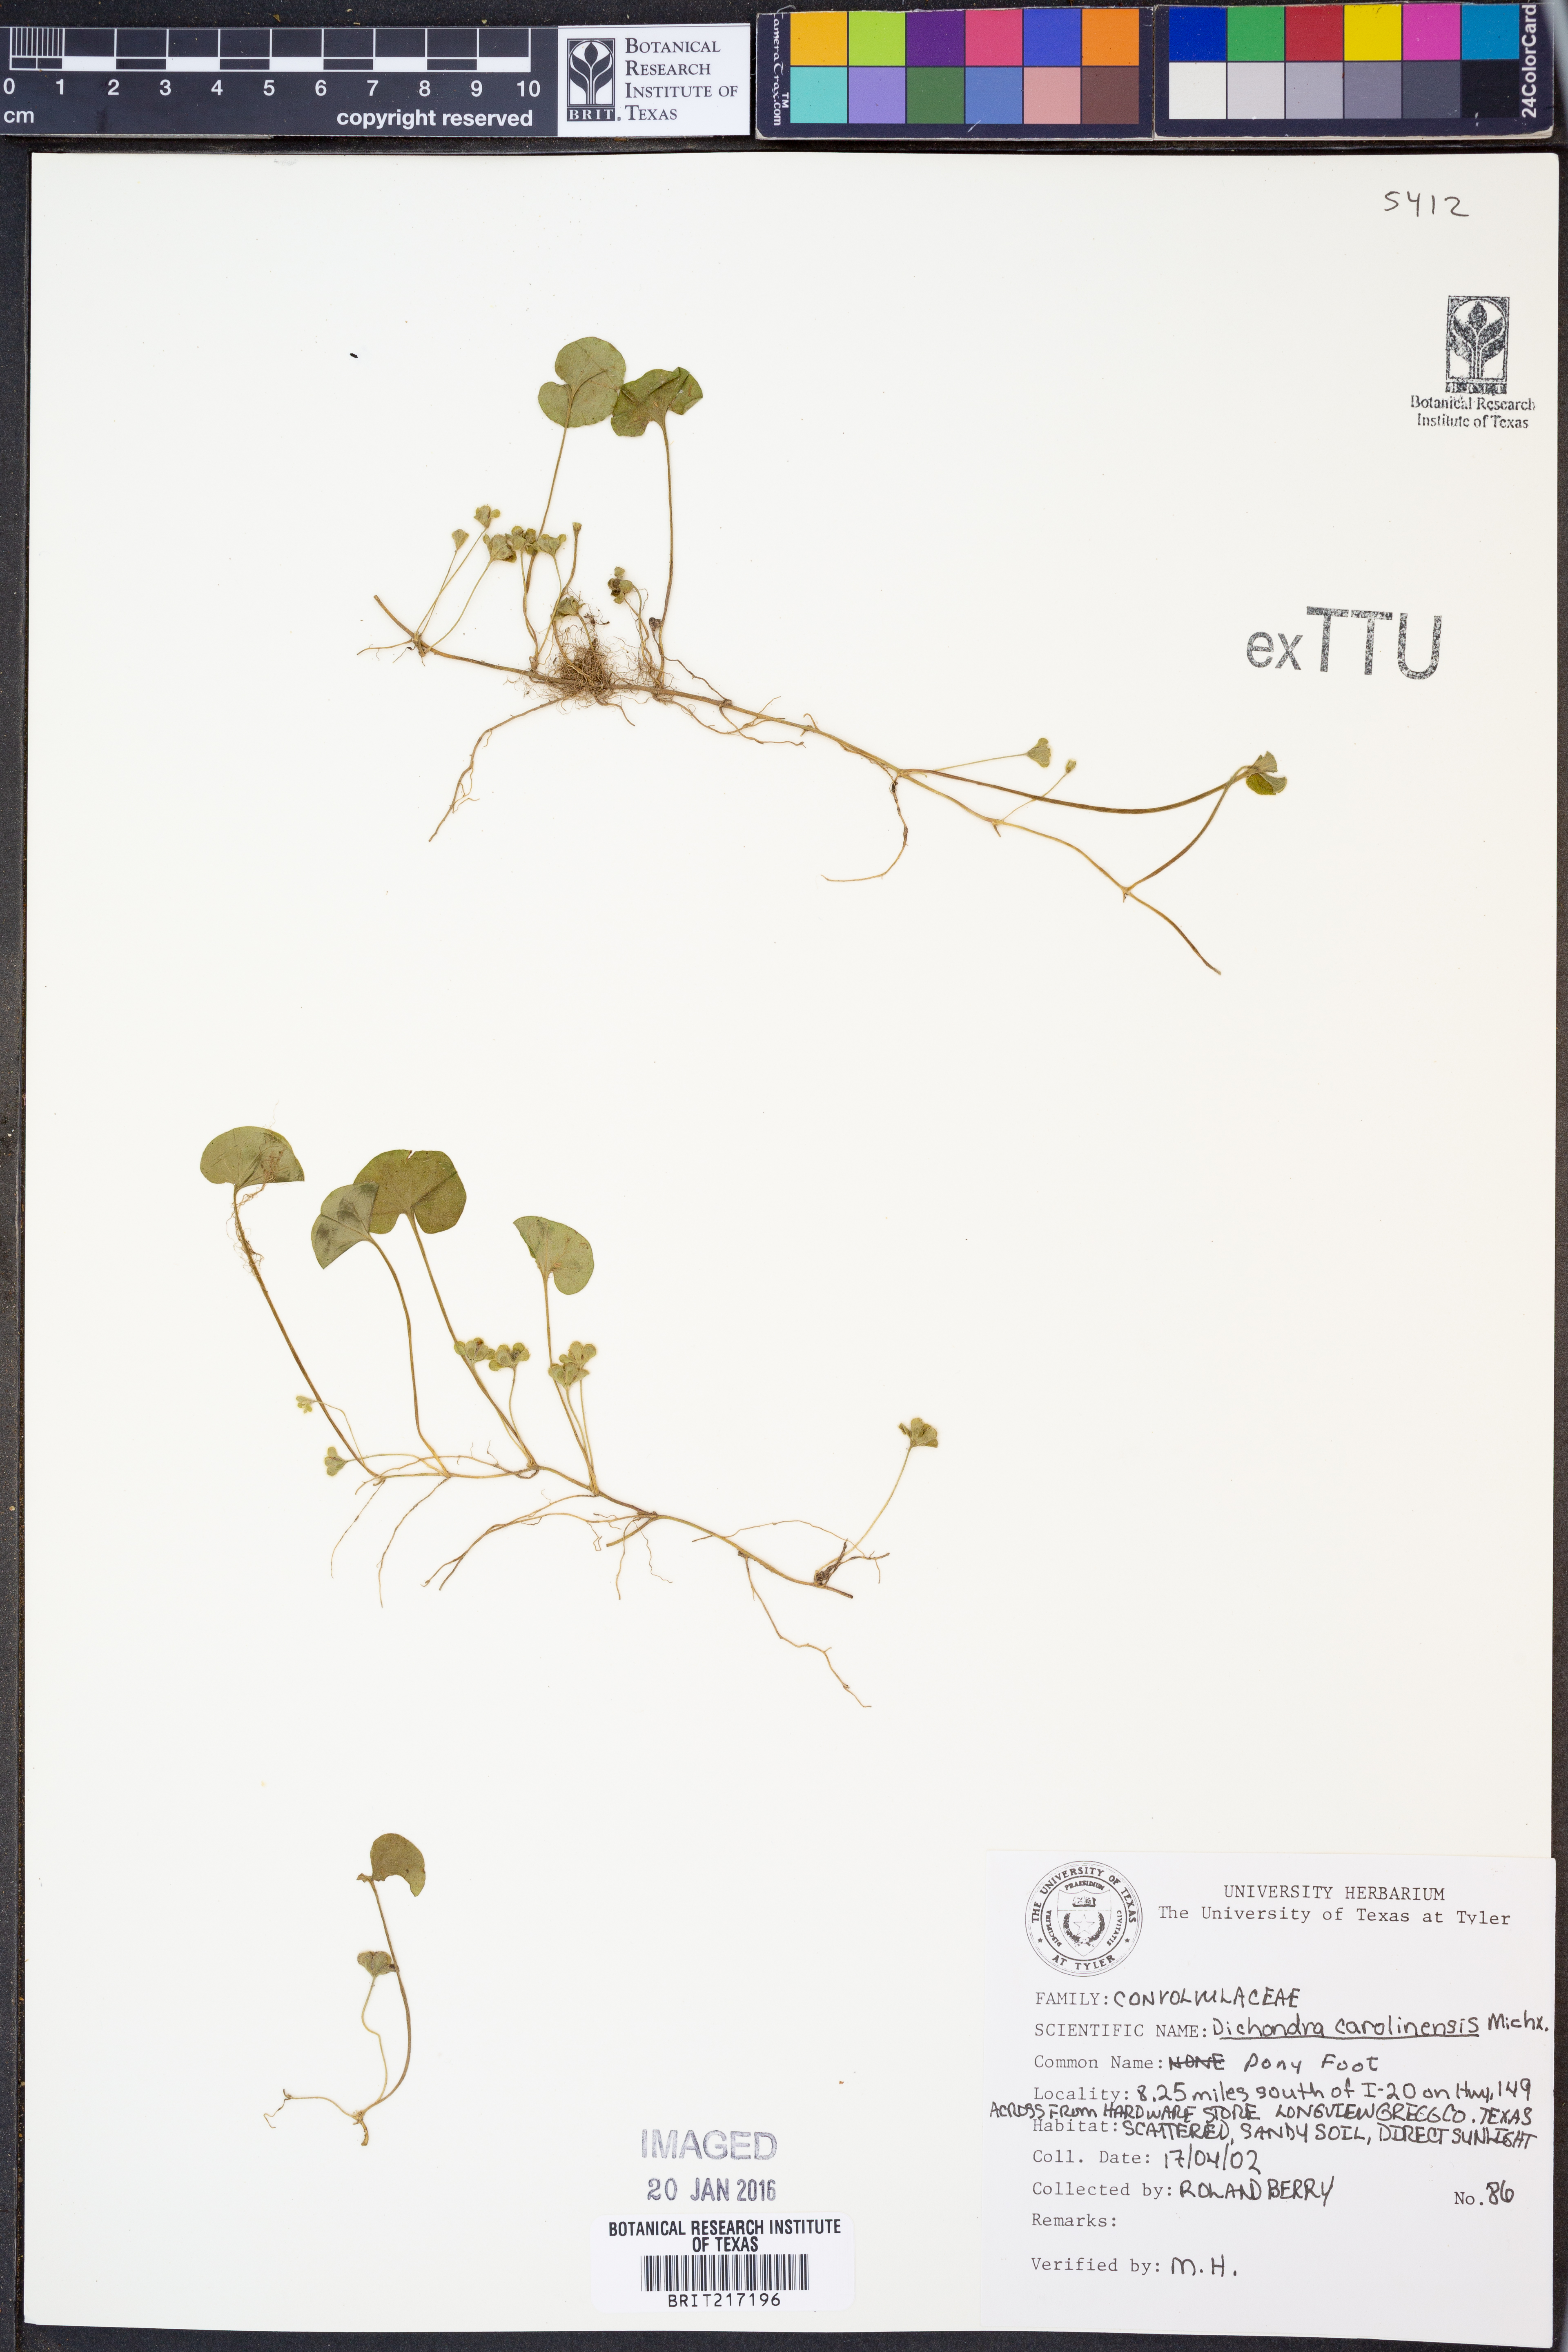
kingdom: Plantae
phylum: Tracheophyta
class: Magnoliopsida
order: Solanales
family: Convolvulaceae
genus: Dichondra
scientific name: Dichondra carolinensis
